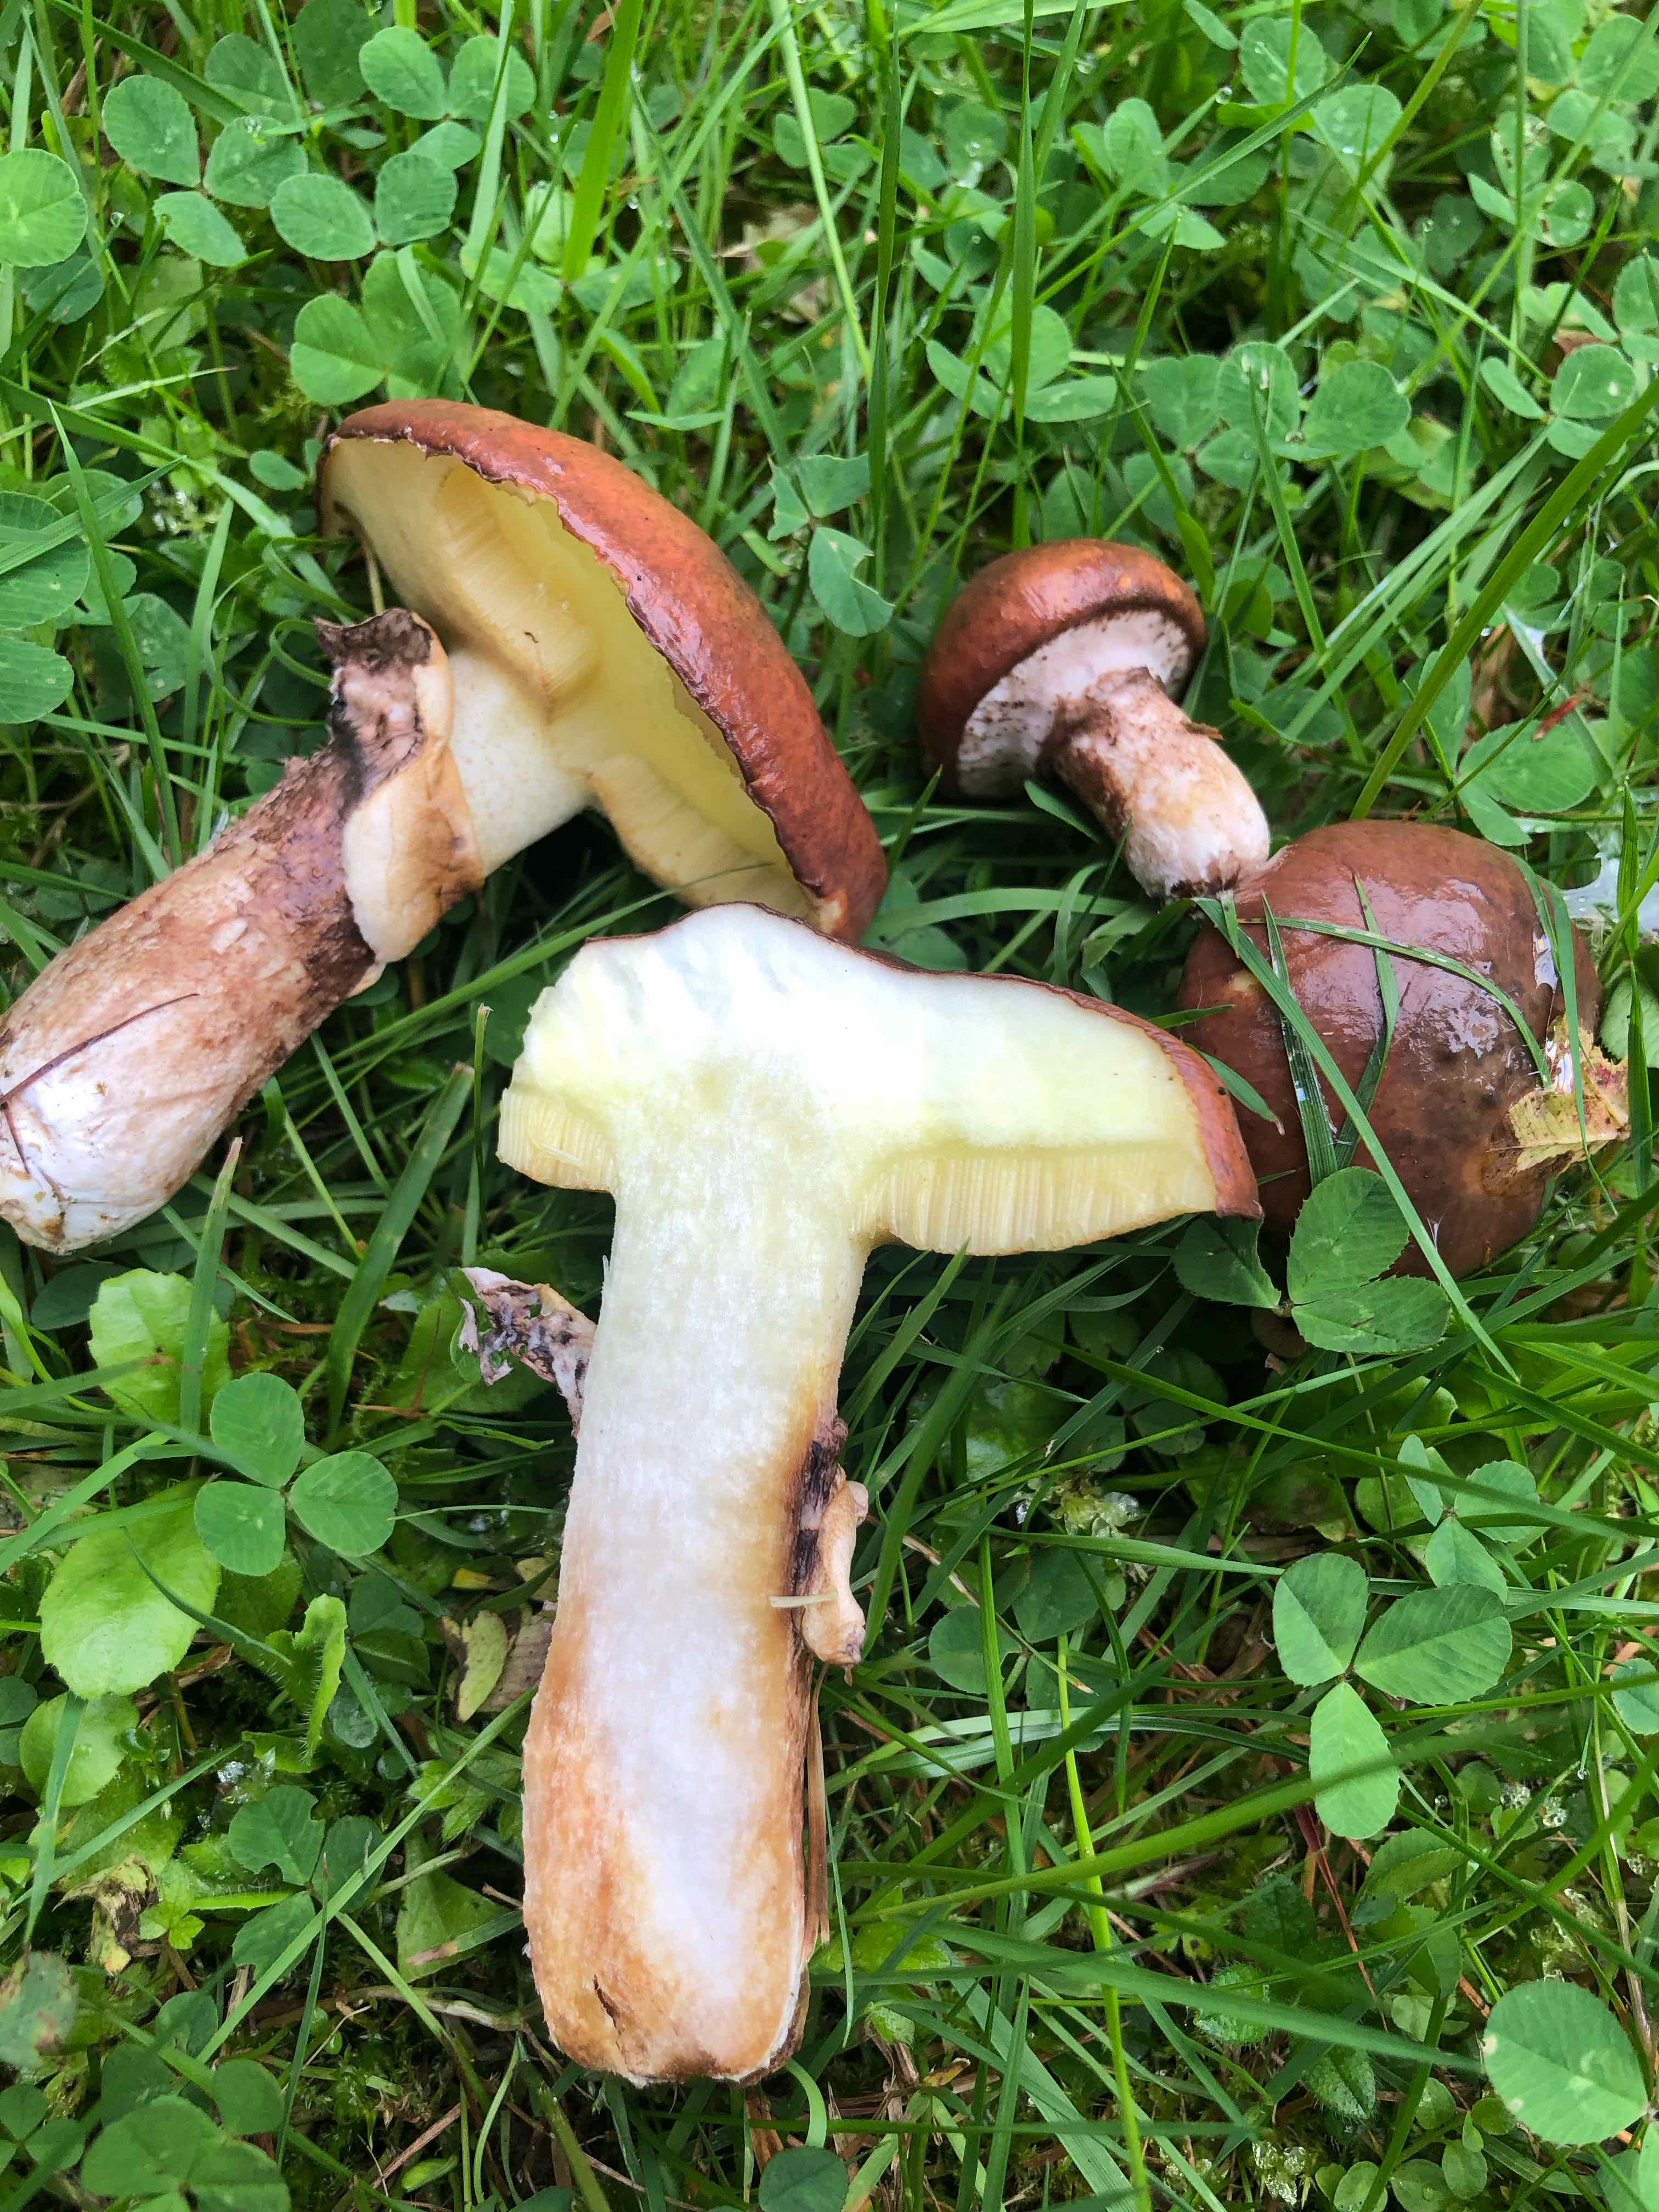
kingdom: Fungi
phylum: Basidiomycota
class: Agaricomycetes
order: Boletales
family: Suillaceae
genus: Suillus
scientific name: Suillus luteus
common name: brungul slimrørhat
